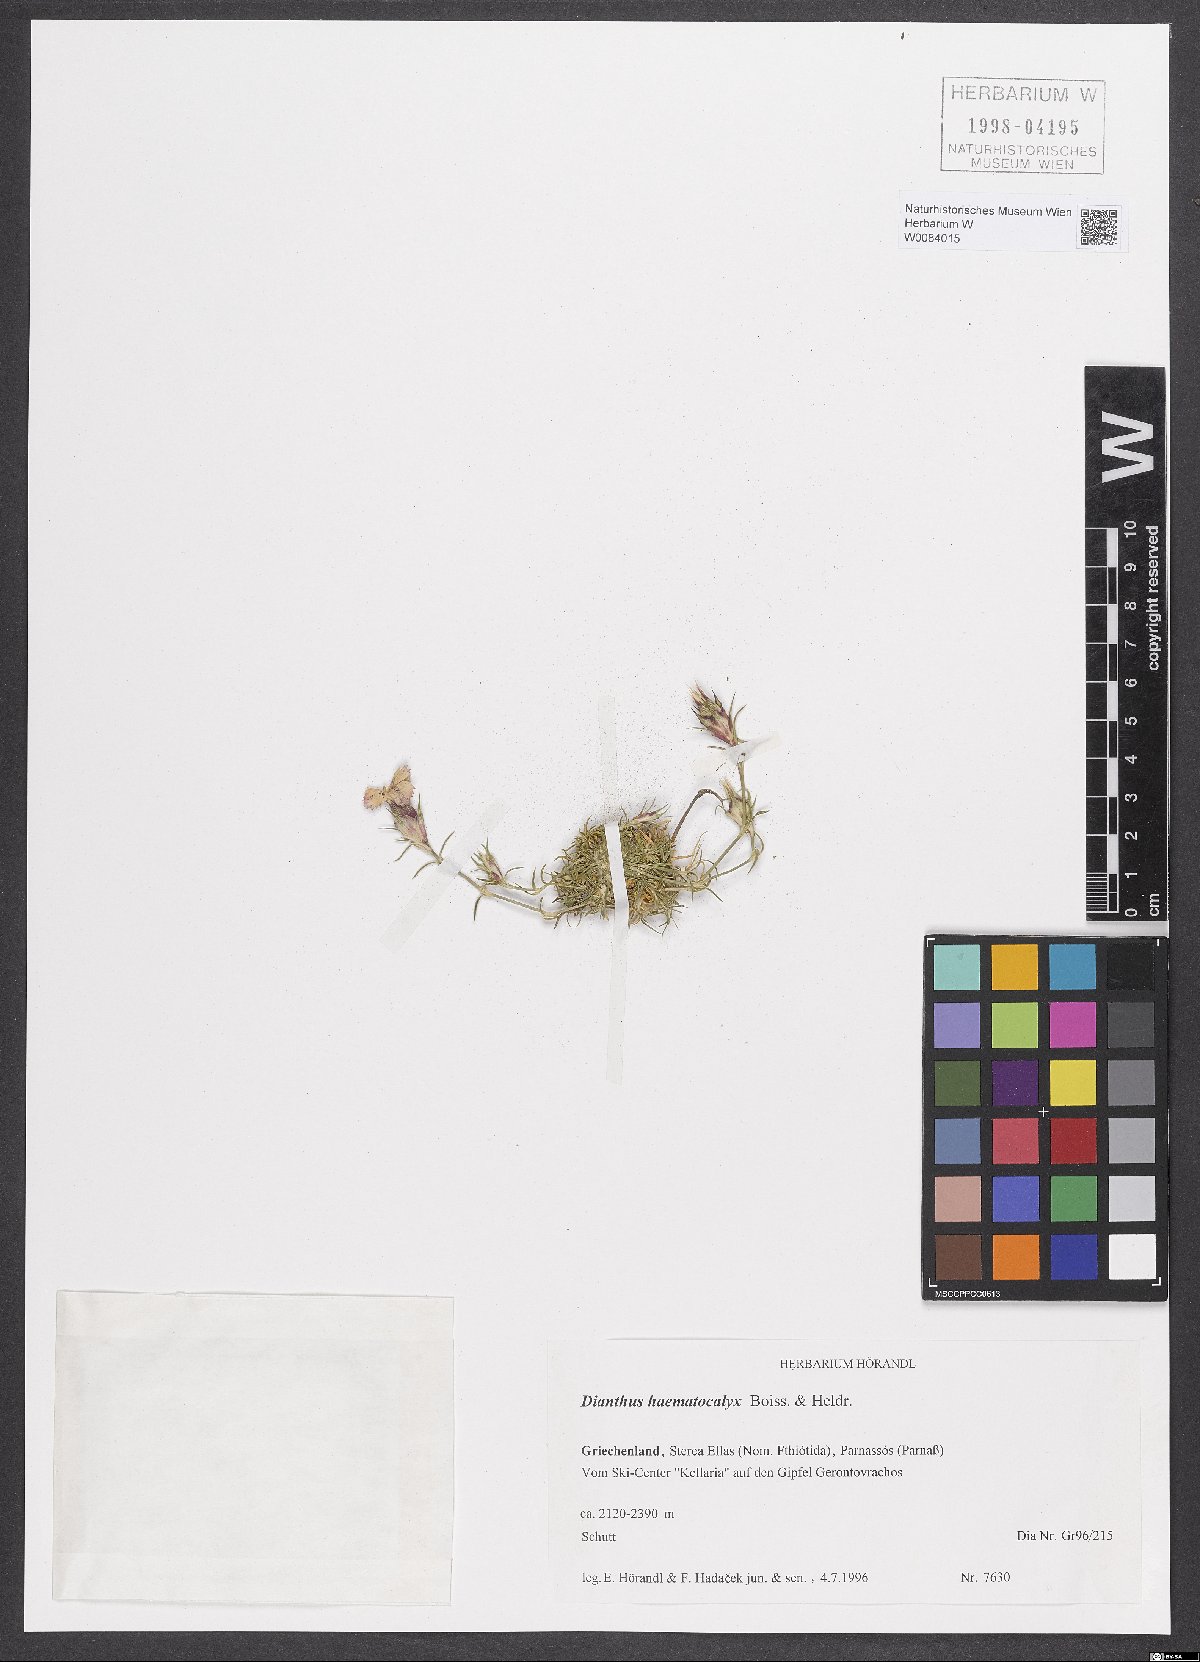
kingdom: Plantae
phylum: Tracheophyta
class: Magnoliopsida
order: Caryophyllales
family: Caryophyllaceae
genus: Dianthus
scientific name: Dianthus haematocalyx
